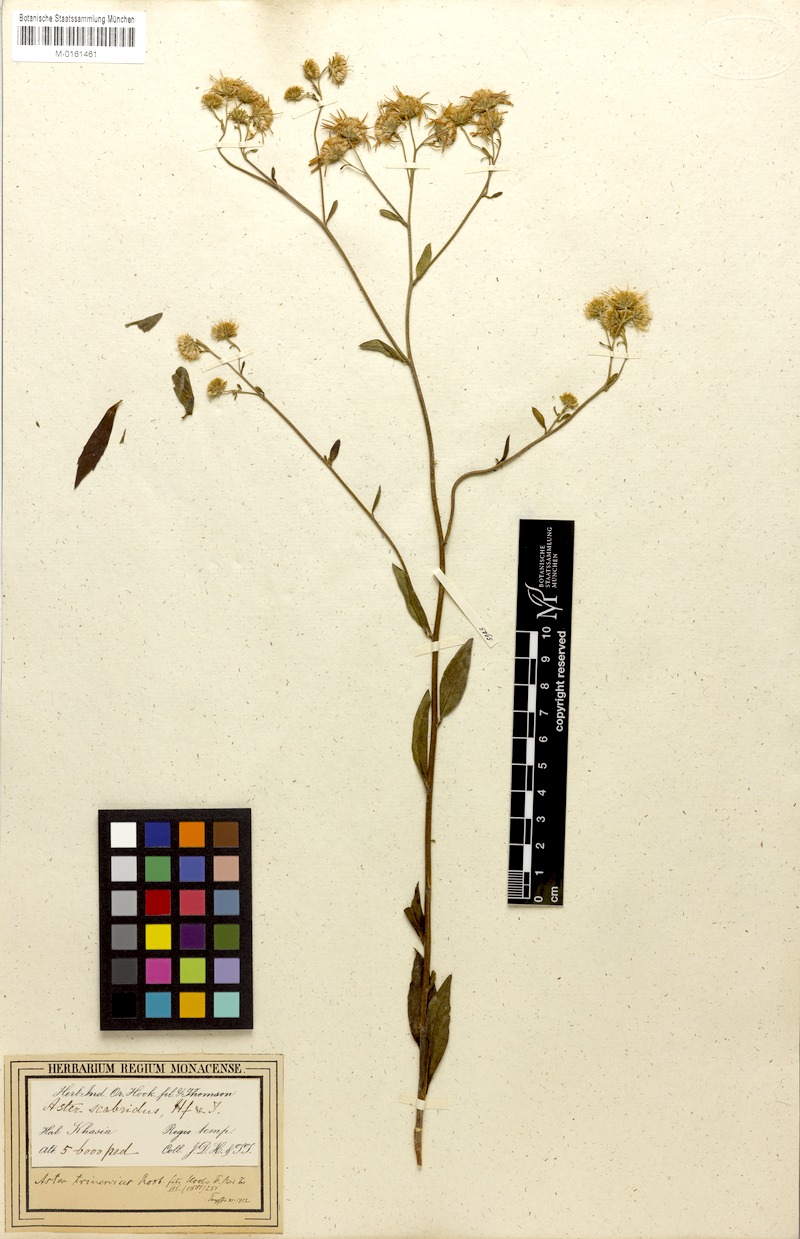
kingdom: Plantae
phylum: Tracheophyta
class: Magnoliopsida
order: Asterales
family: Asteraceae
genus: Aster
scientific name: Aster trinervius
